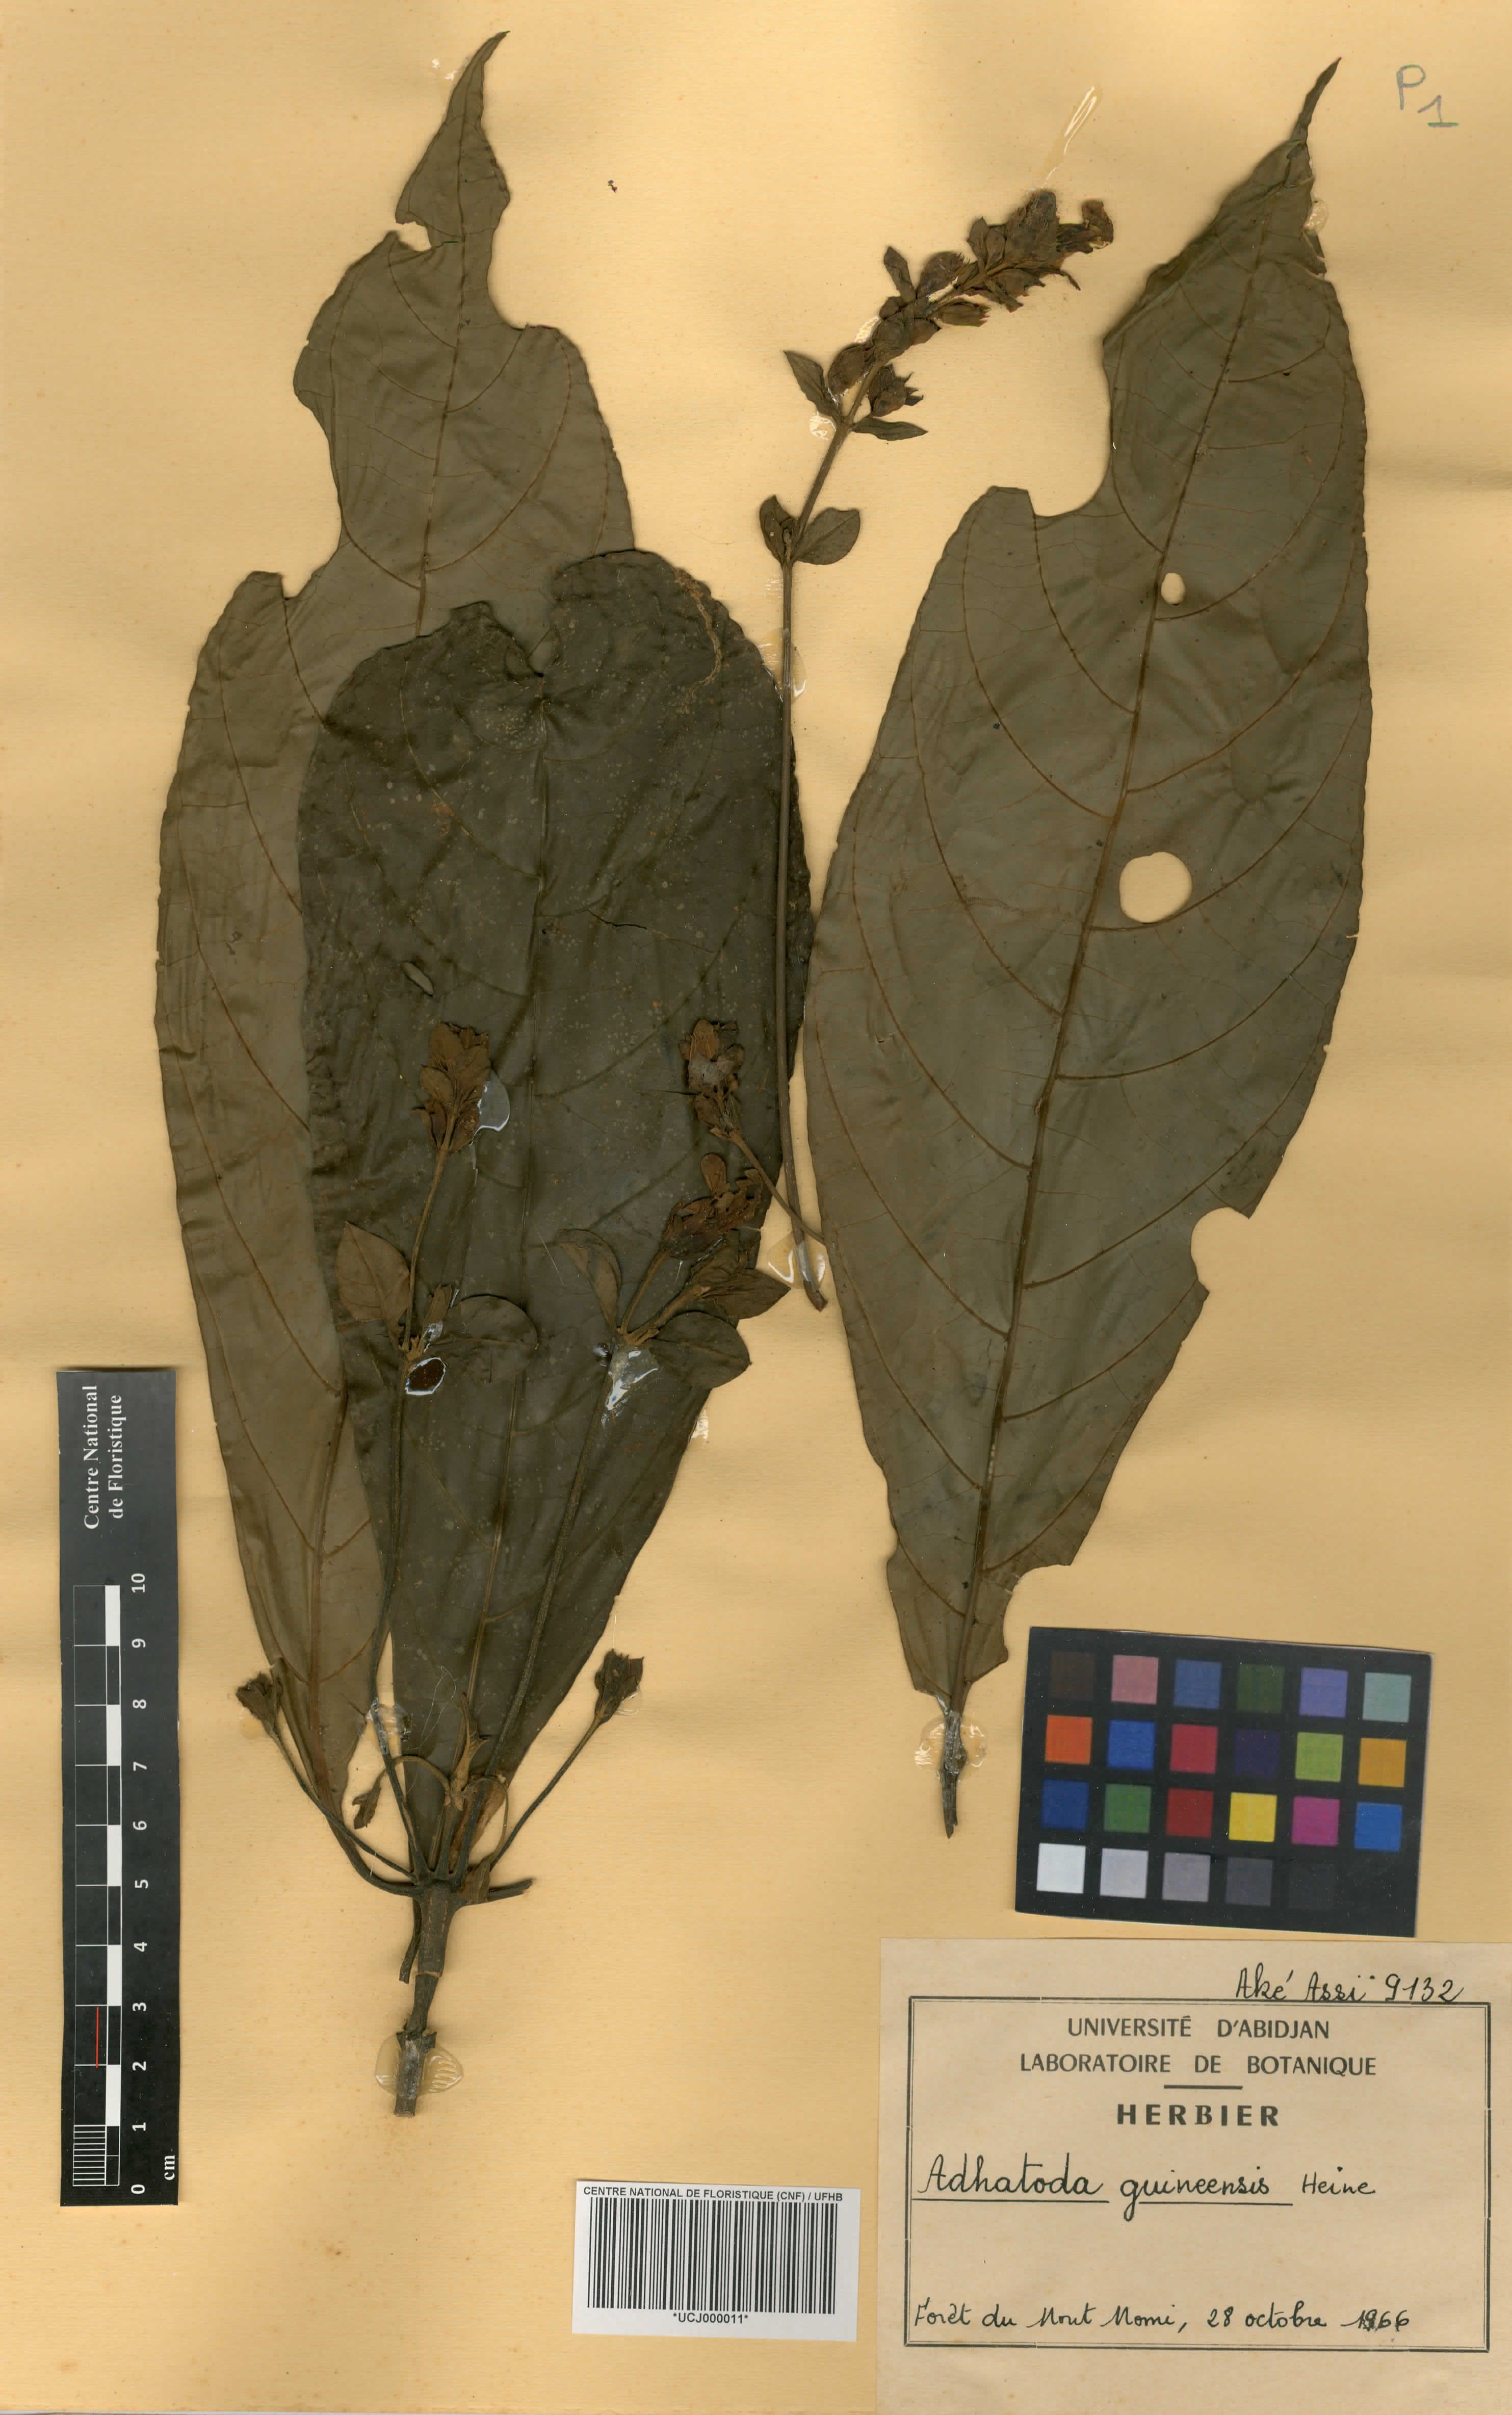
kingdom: Plantae
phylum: Tracheophyta
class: Magnoliopsida
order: Lamiales
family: Acanthaceae
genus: Justicia
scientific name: Justicia guineensis
